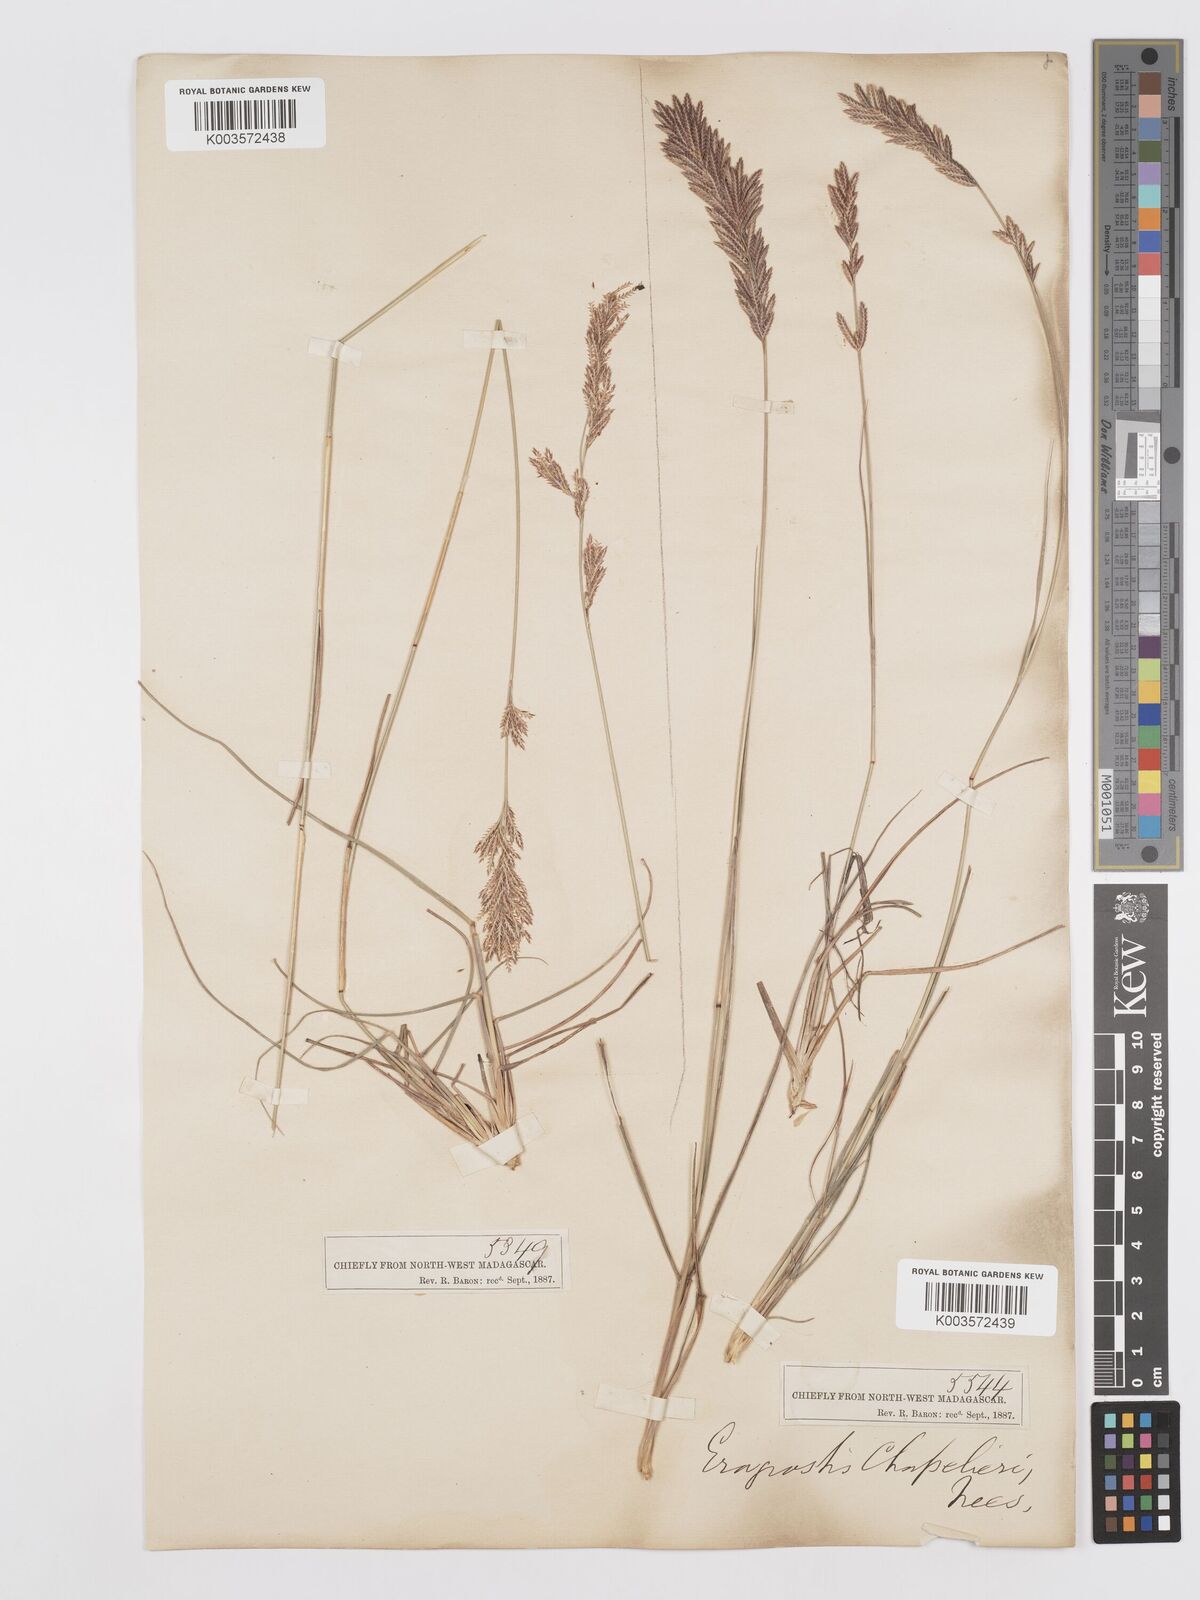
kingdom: Plantae
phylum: Tracheophyta
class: Liliopsida
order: Poales
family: Poaceae
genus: Eragrostis
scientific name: Eragrostis chapelieri
